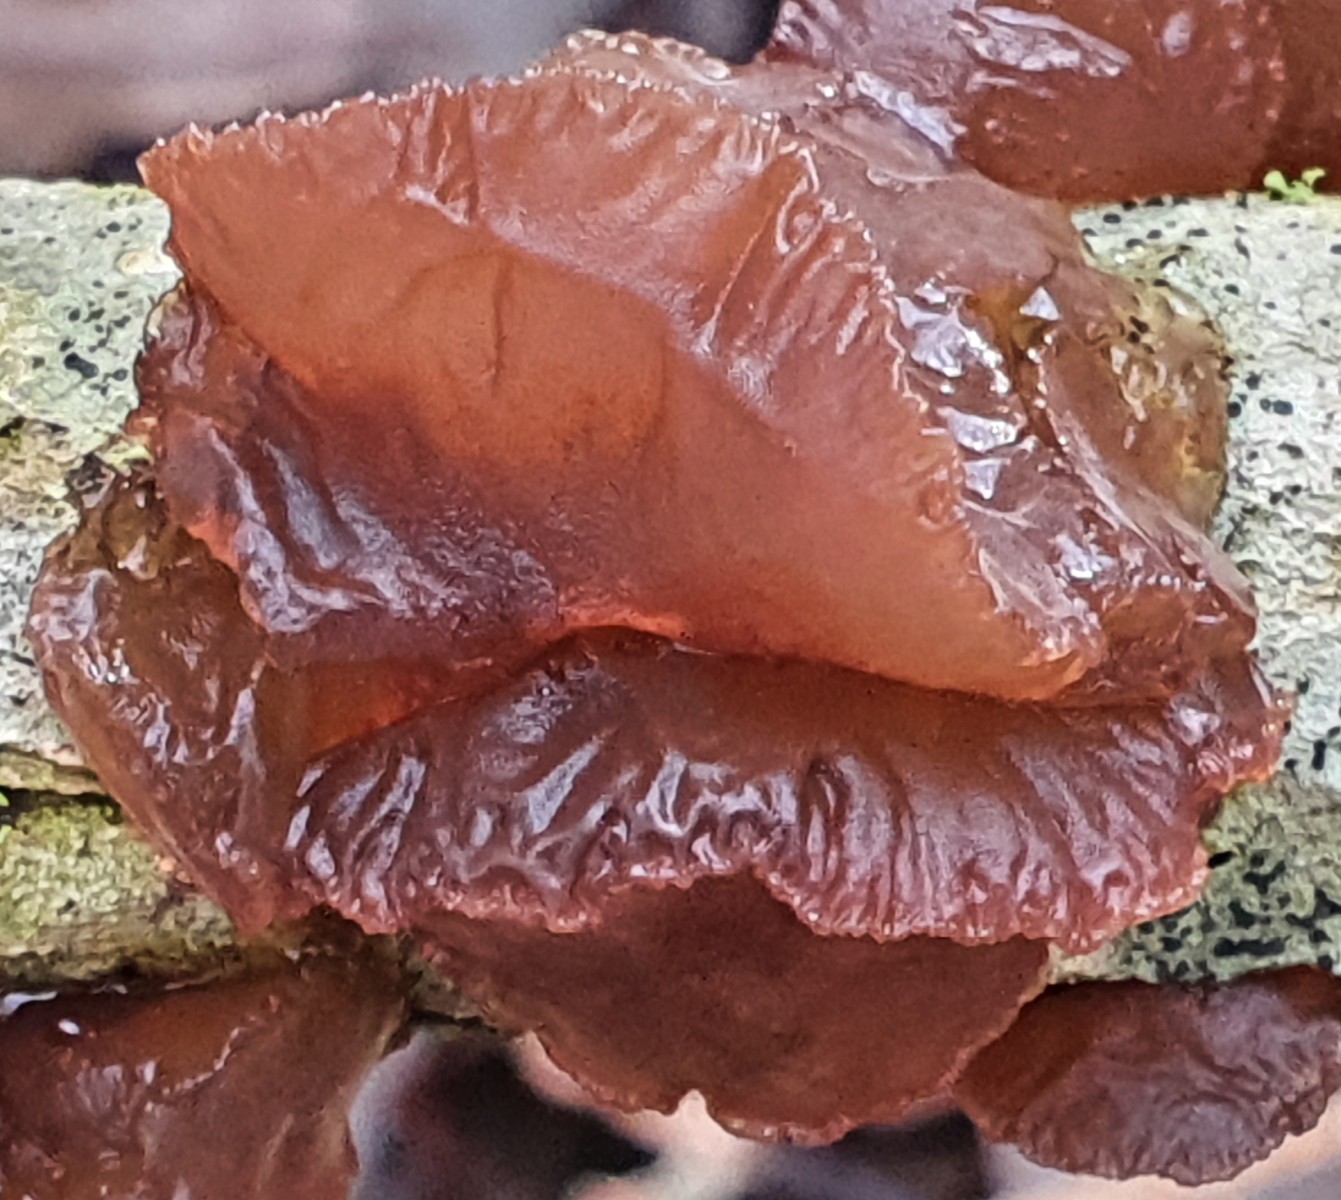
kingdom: Fungi
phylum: Basidiomycota
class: Agaricomycetes
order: Auriculariales
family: Auriculariaceae
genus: Exidia
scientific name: Exidia recisa
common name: pile-bævretop
